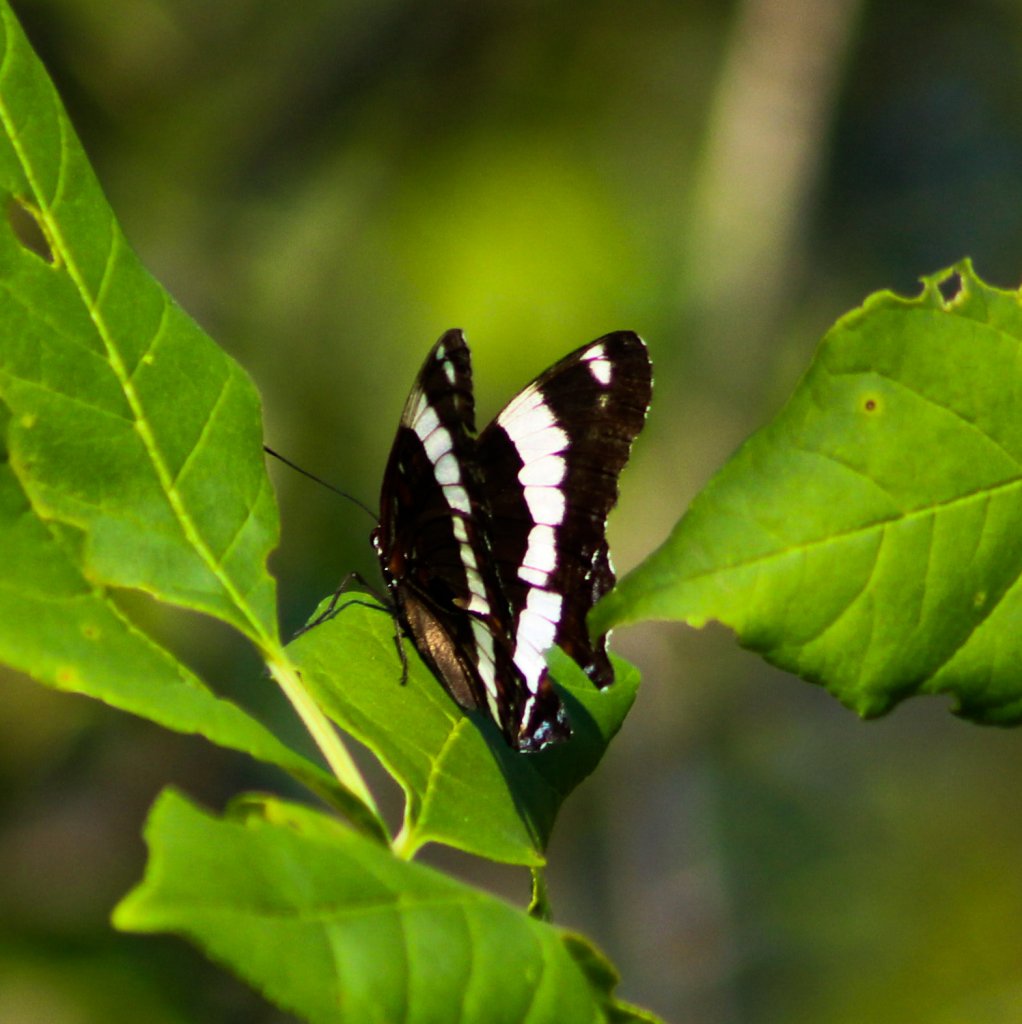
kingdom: Animalia
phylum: Arthropoda
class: Insecta
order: Lepidoptera
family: Nymphalidae
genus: Limenitis
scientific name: Limenitis arthemis
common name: Red-spotted Admiral
